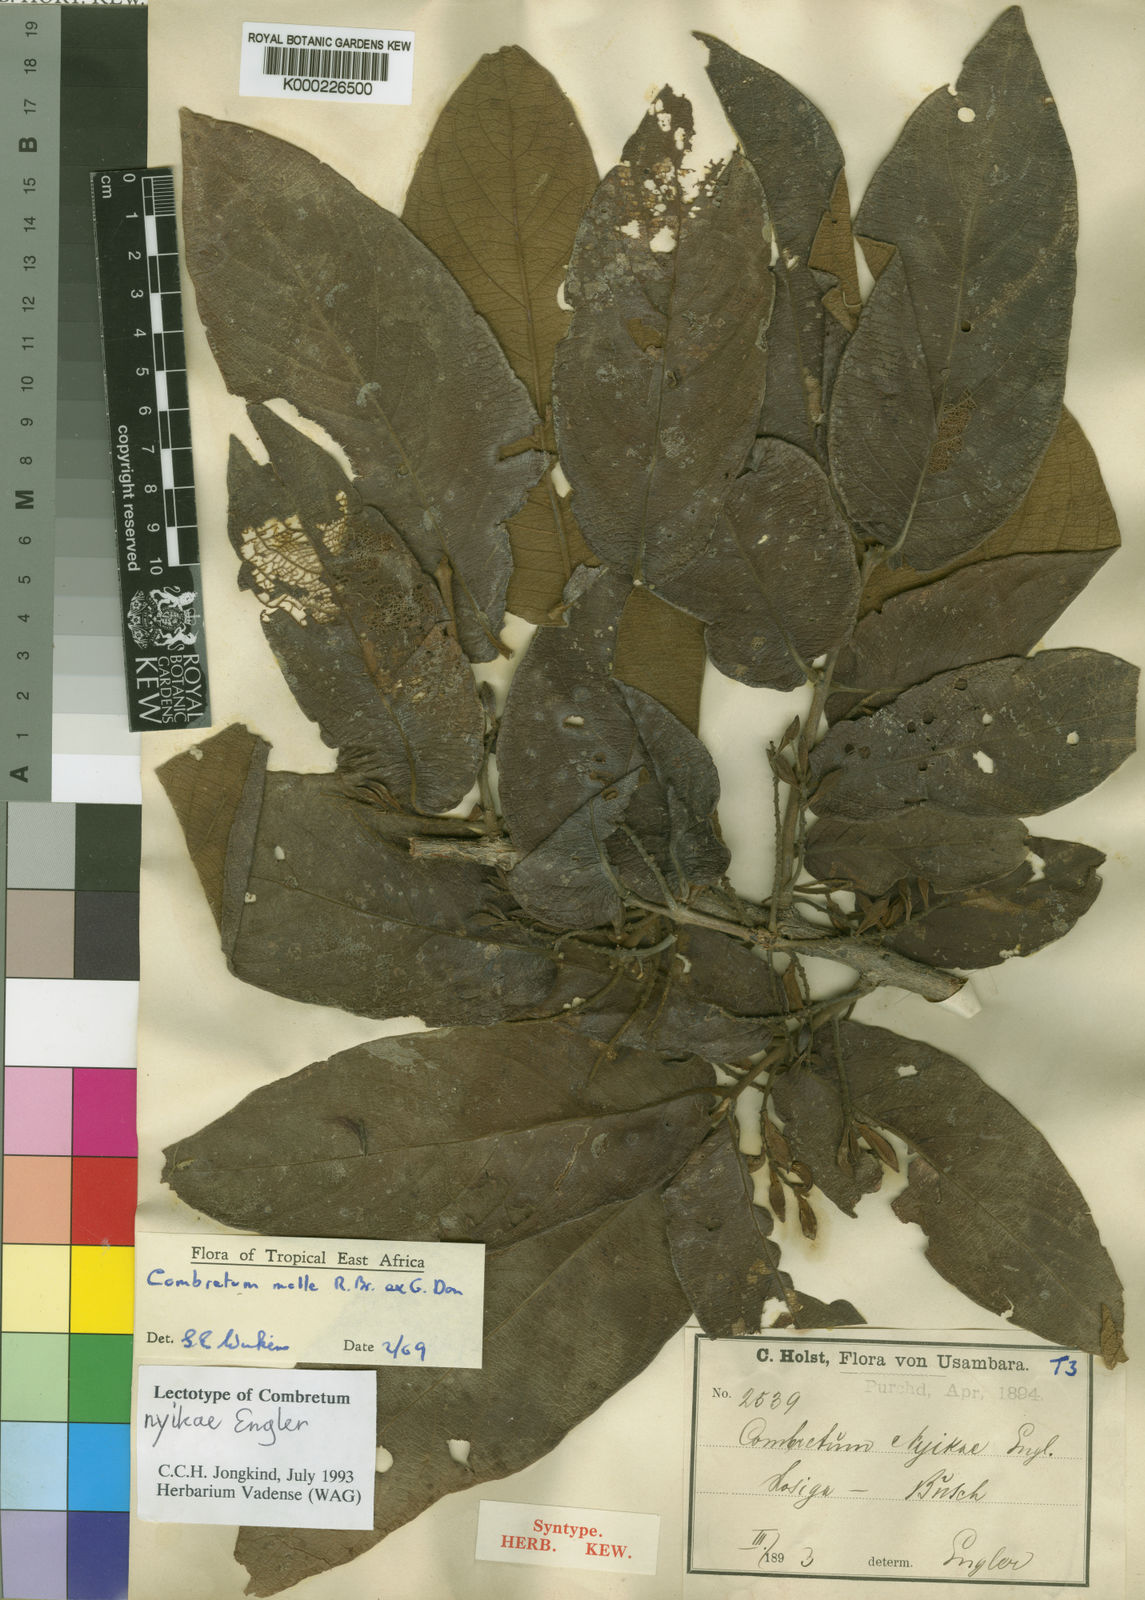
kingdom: Plantae
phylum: Tracheophyta
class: Magnoliopsida
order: Myrtales
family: Combretaceae
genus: Combretum
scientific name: Combretum molle
